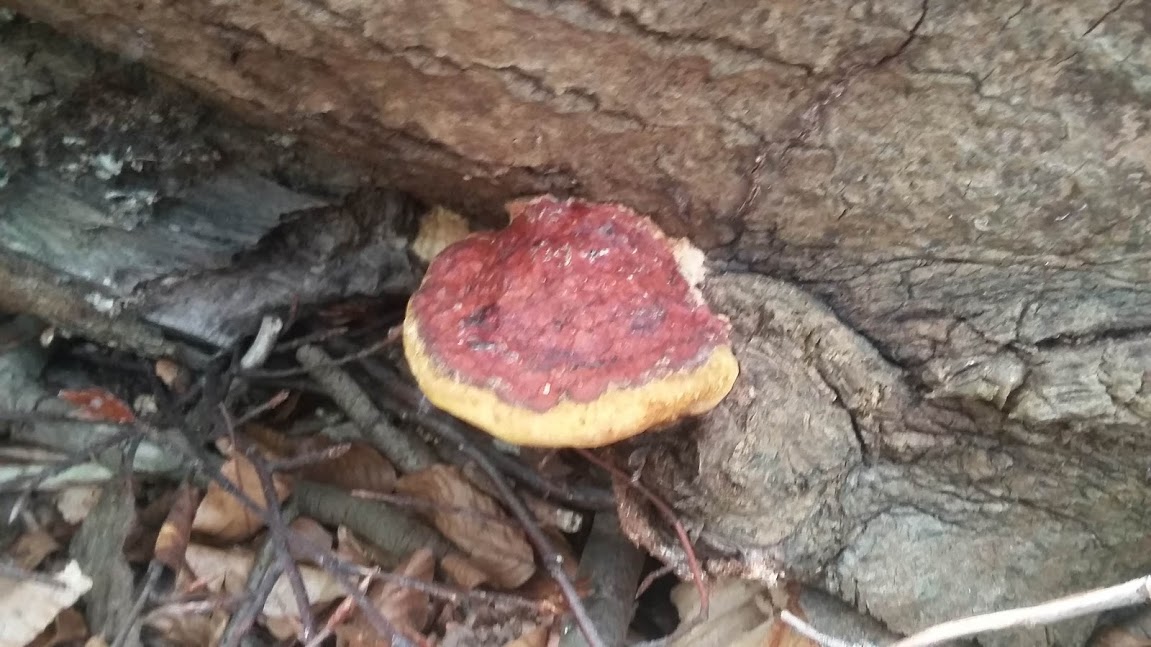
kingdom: Fungi
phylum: Basidiomycota
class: Agaricomycetes
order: Polyporales
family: Fomitopsidaceae
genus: Fomitopsis
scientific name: Fomitopsis pinicola
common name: randbæltet hovporesvamp
